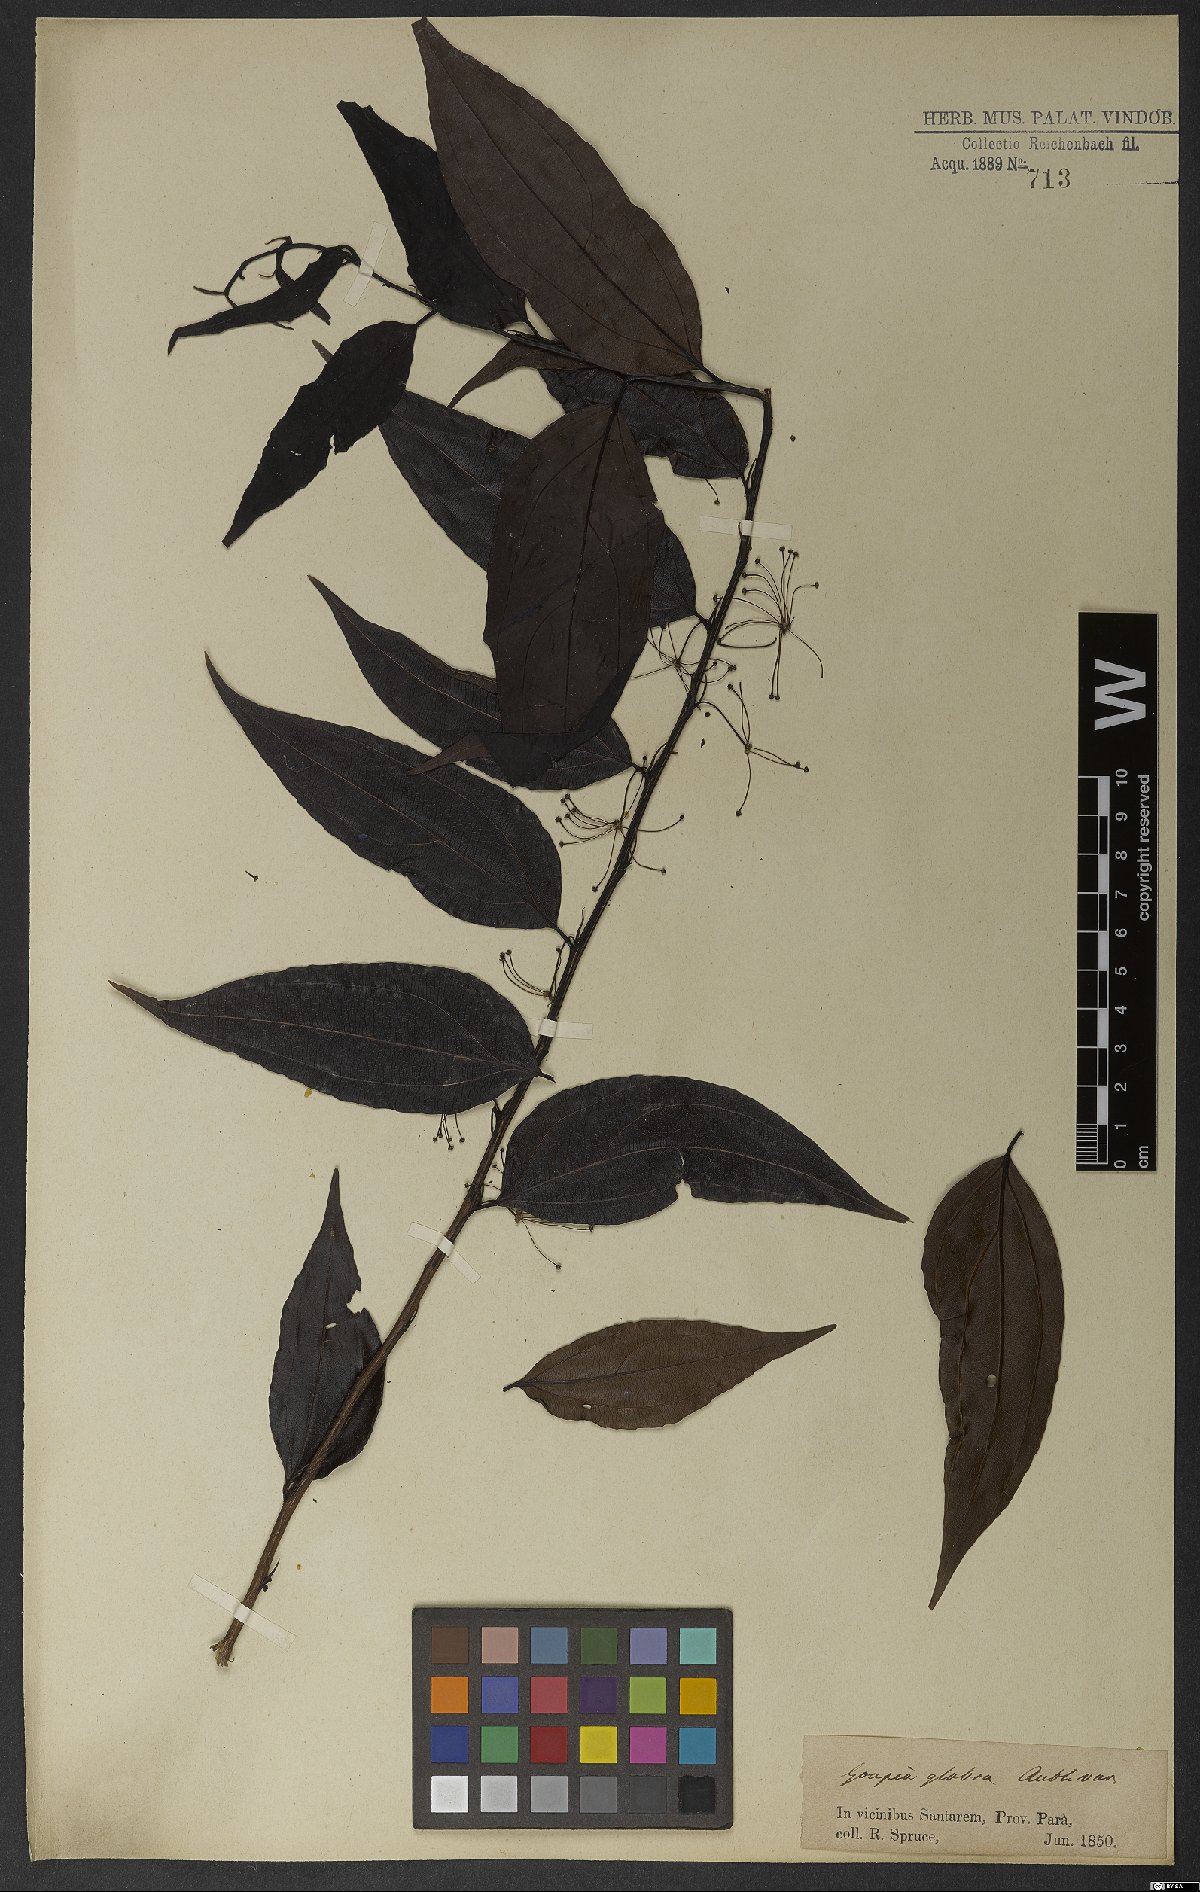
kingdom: Plantae
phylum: Tracheophyta
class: Magnoliopsida
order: Malpighiales
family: Goupiaceae
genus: Goupia
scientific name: Goupia glabra
